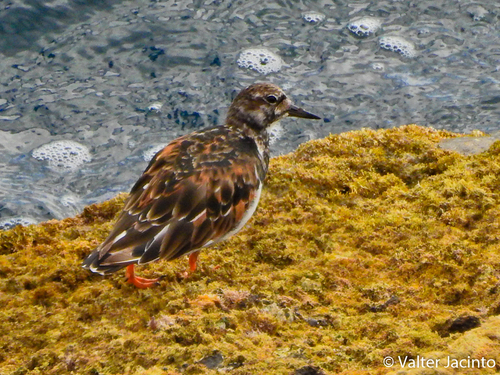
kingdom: Animalia
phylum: Chordata
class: Aves
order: Charadriiformes
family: Scolopacidae
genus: Arenaria
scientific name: Arenaria interpres
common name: Ruddy turnstone
